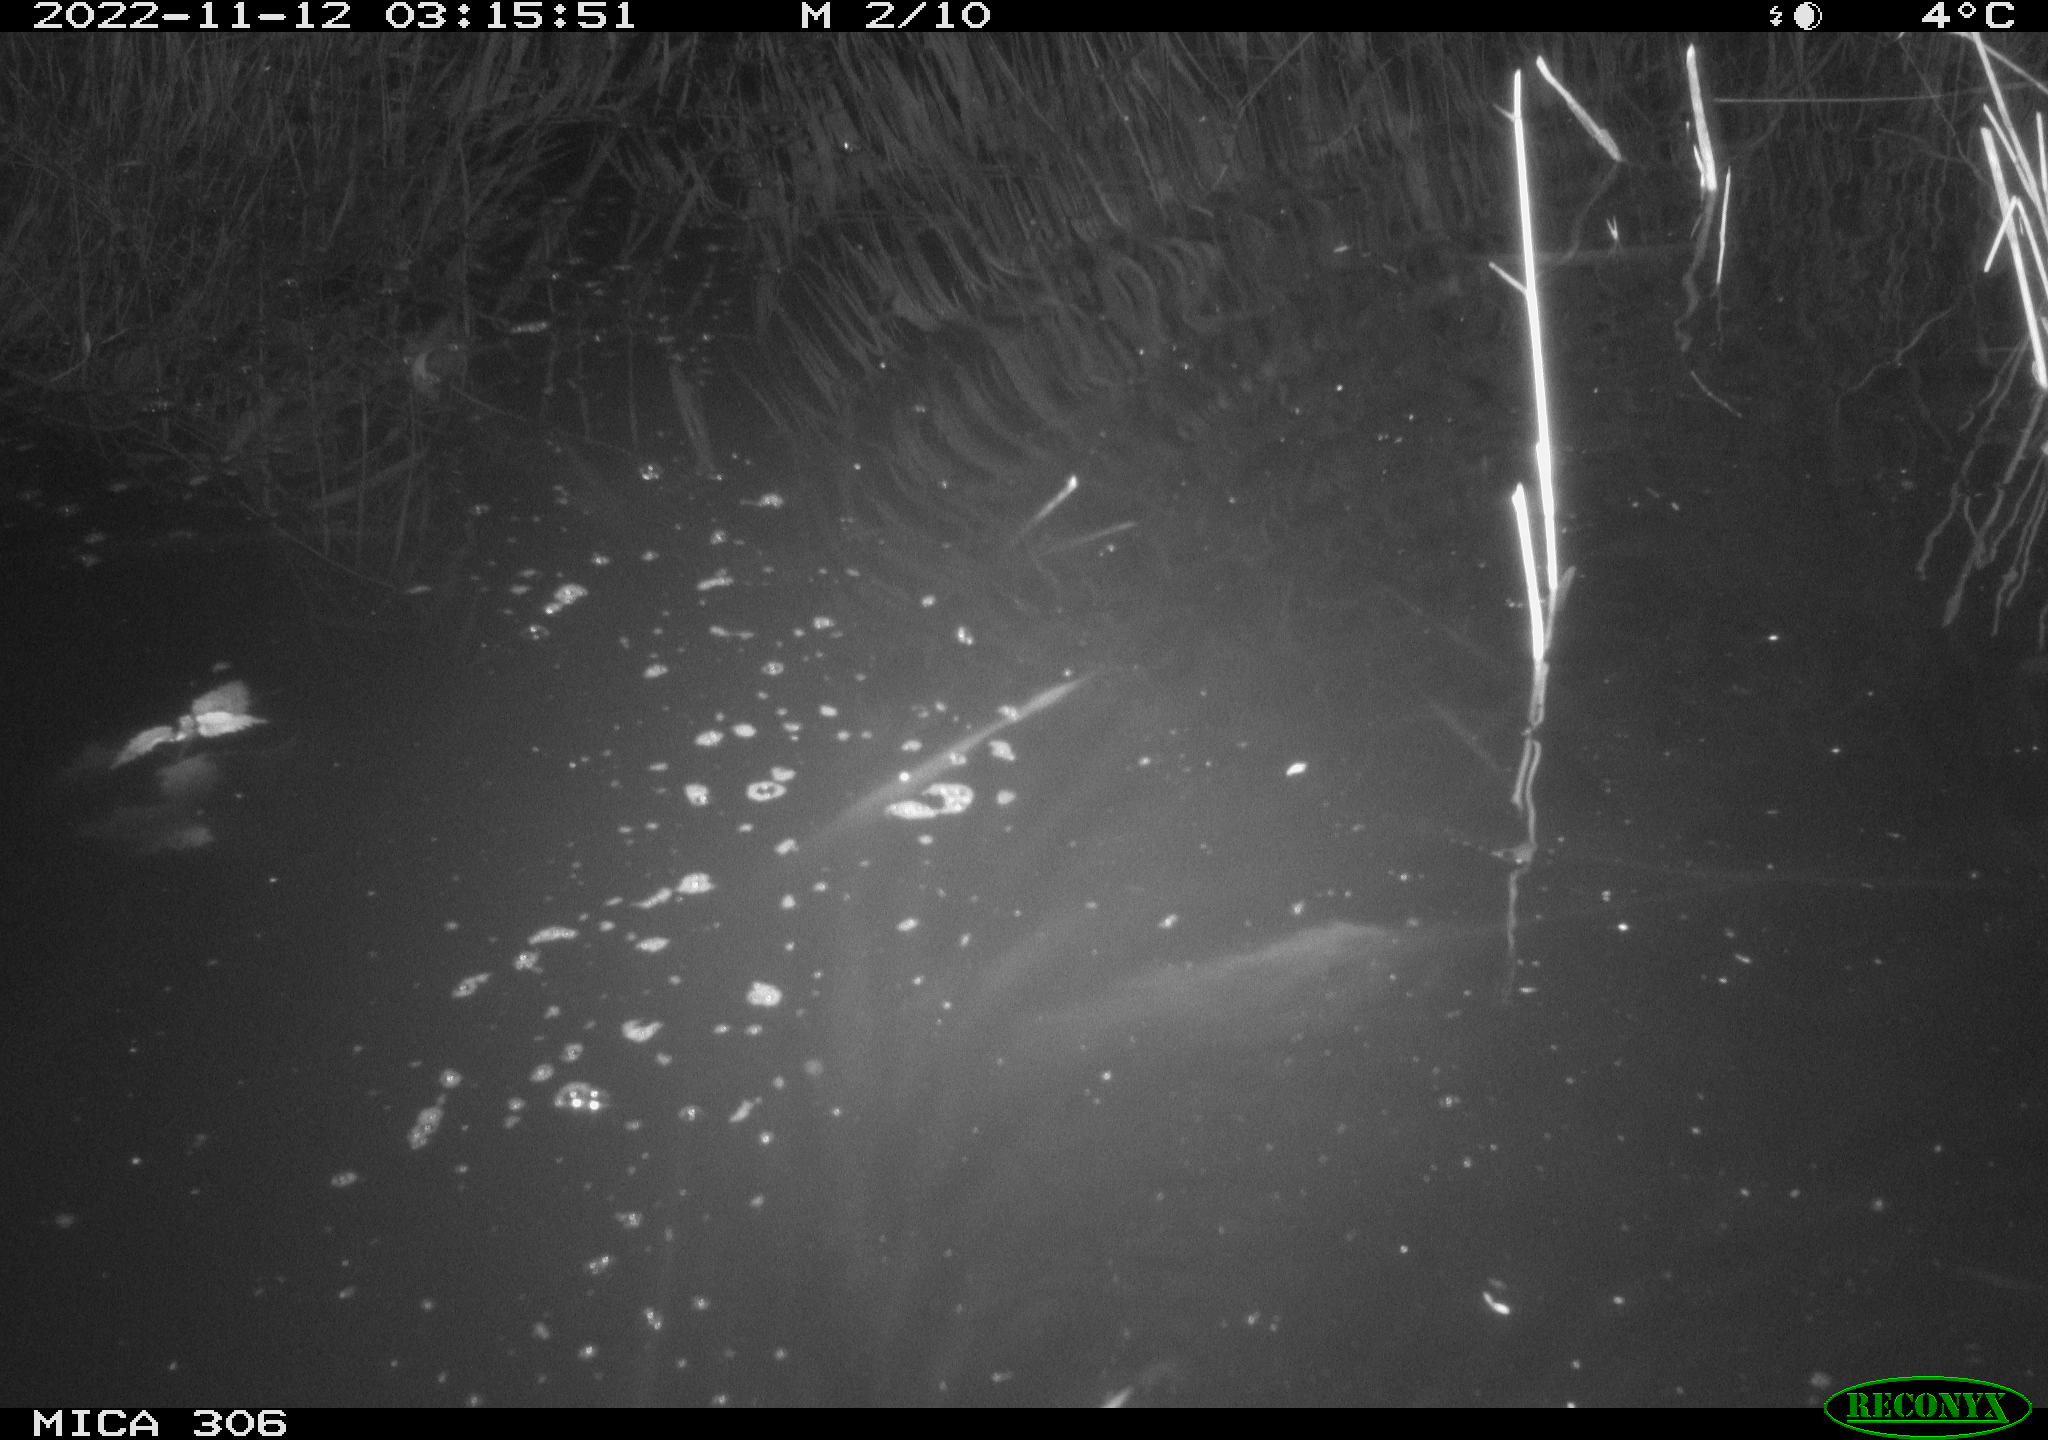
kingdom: Animalia
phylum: Chordata
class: Mammalia
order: Rodentia
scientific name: Rodentia
